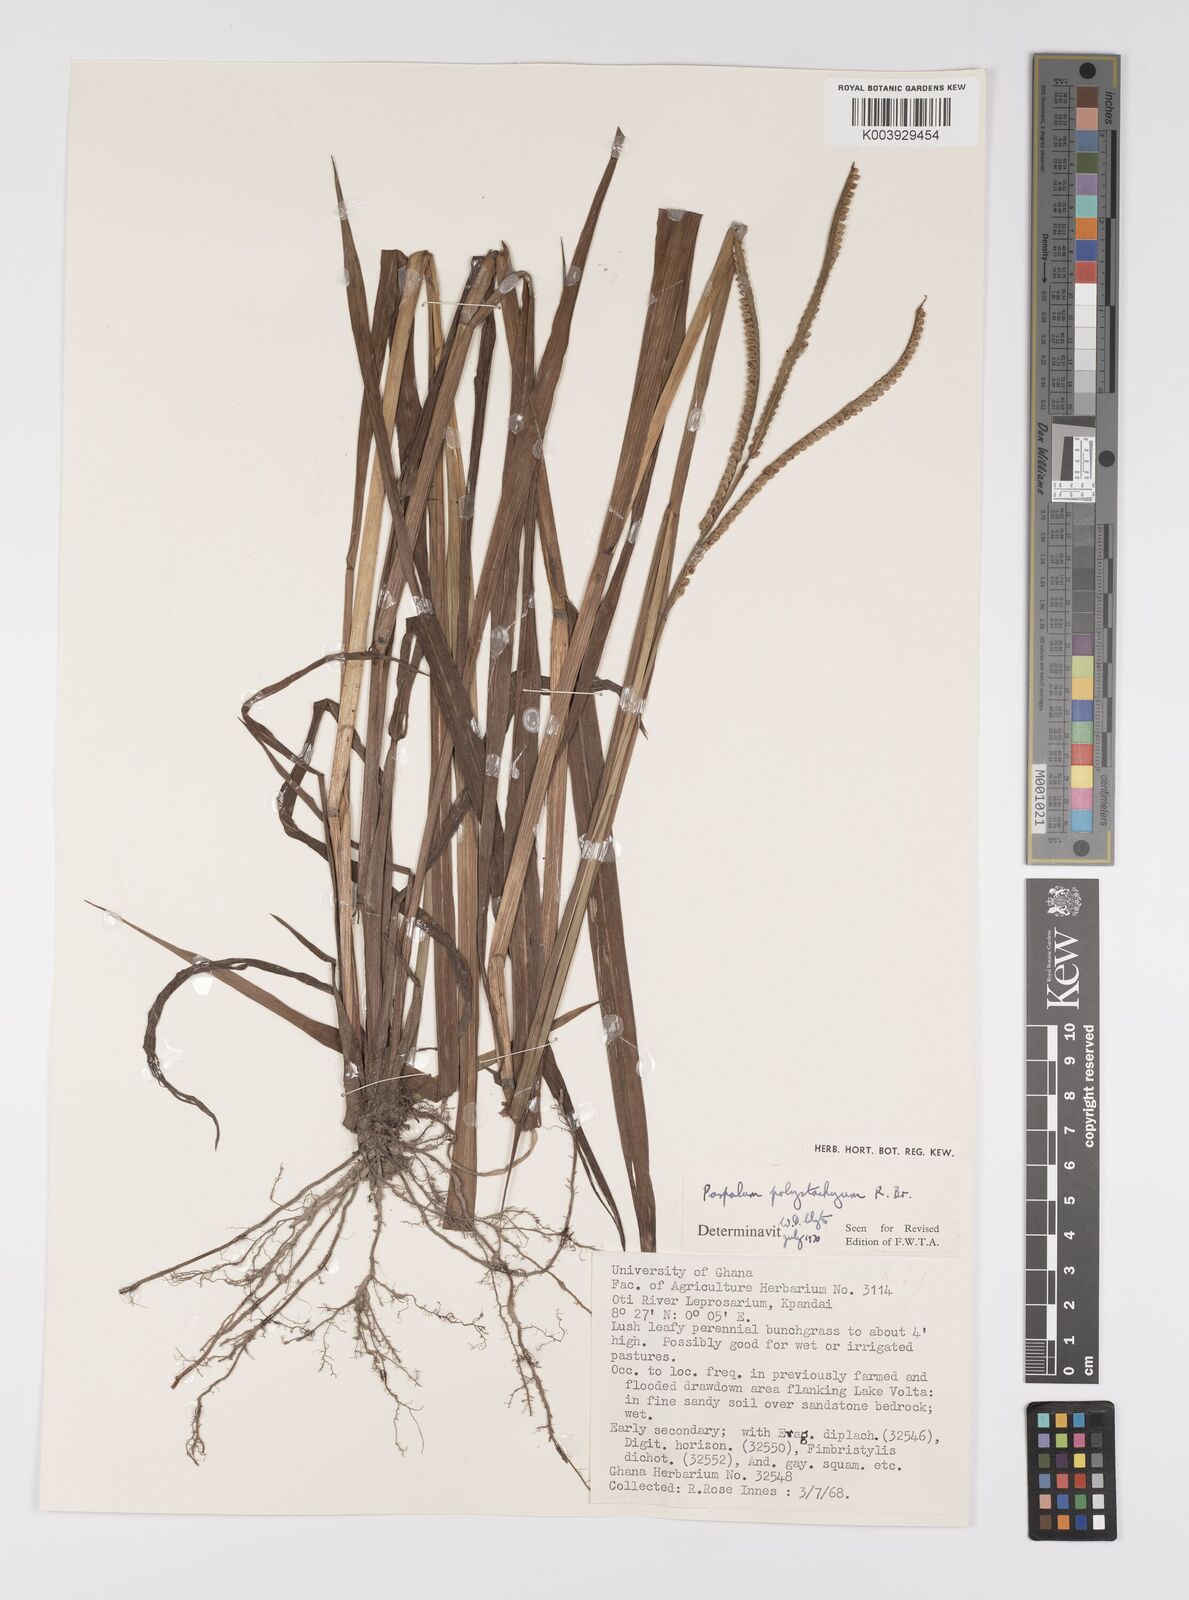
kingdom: Plantae
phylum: Tracheophyta
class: Liliopsida
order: Poales
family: Poaceae
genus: Paspalum
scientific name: Paspalum scrobiculatum
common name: Kodo millet
